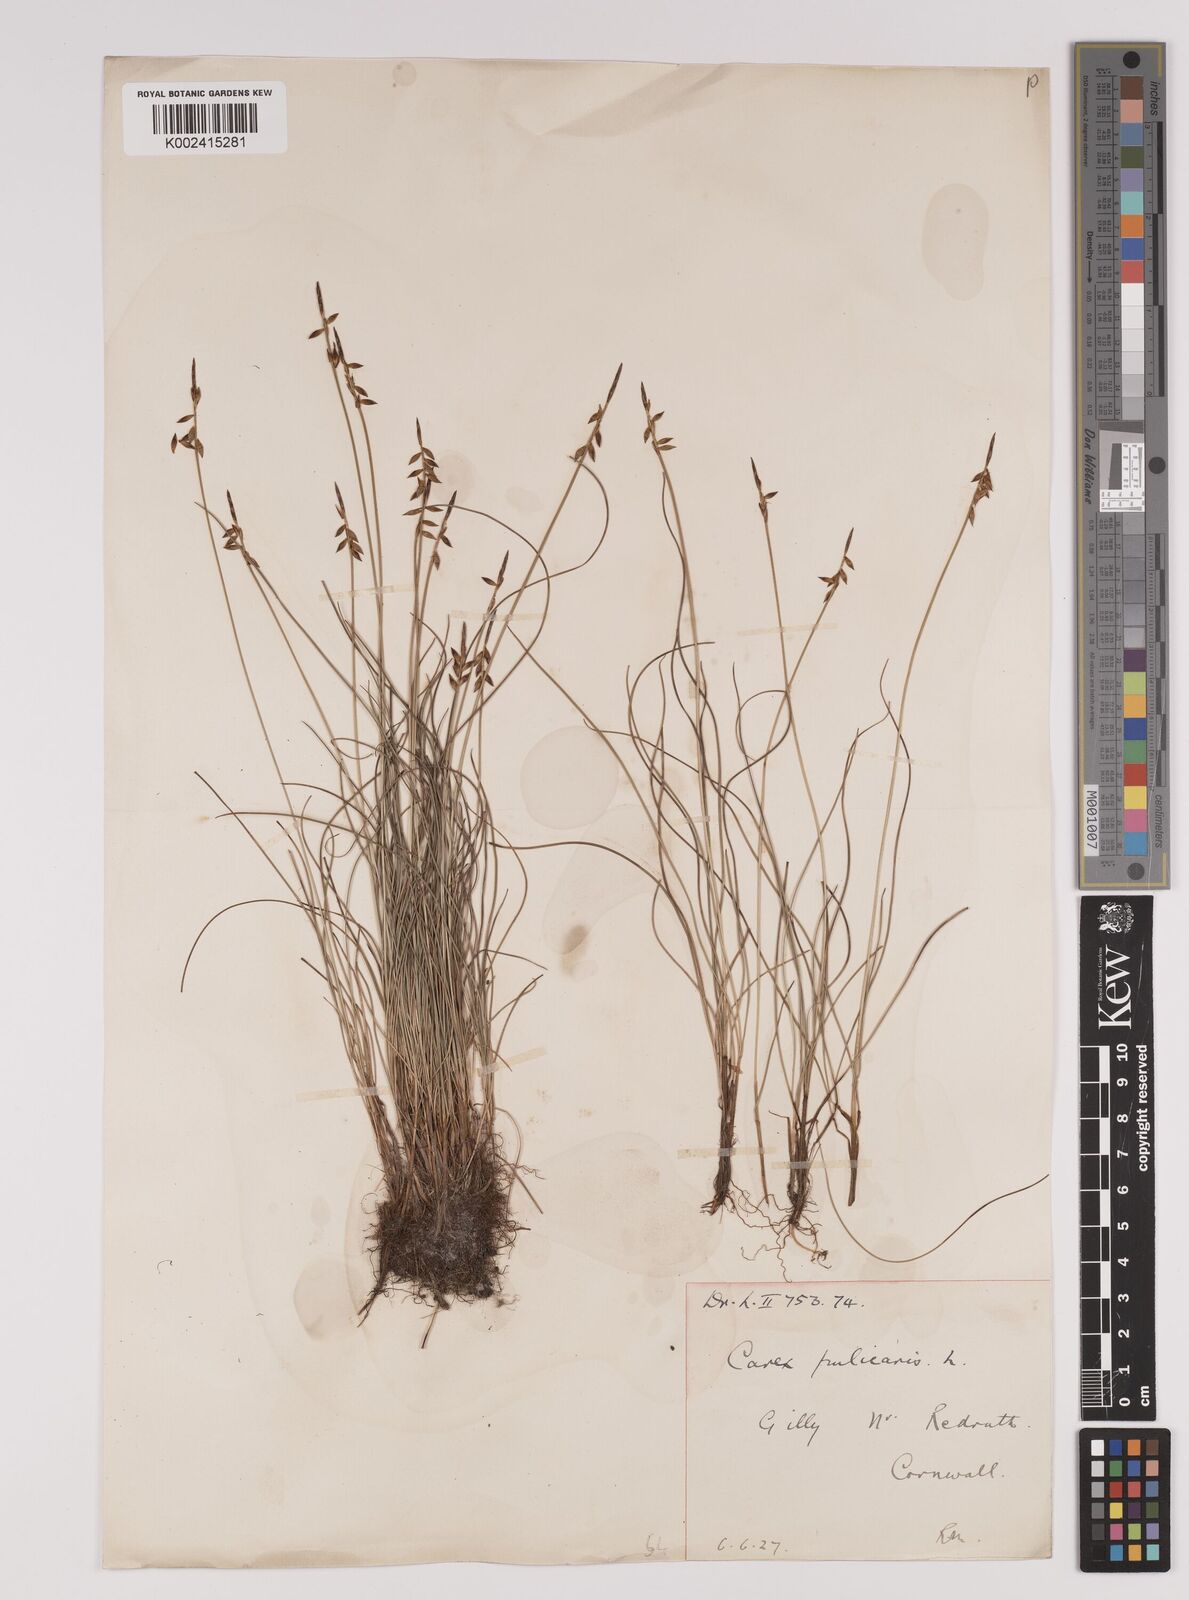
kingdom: Plantae
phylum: Tracheophyta
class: Liliopsida
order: Poales
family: Cyperaceae
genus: Carex
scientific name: Carex pulicaris
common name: Flea sedge
